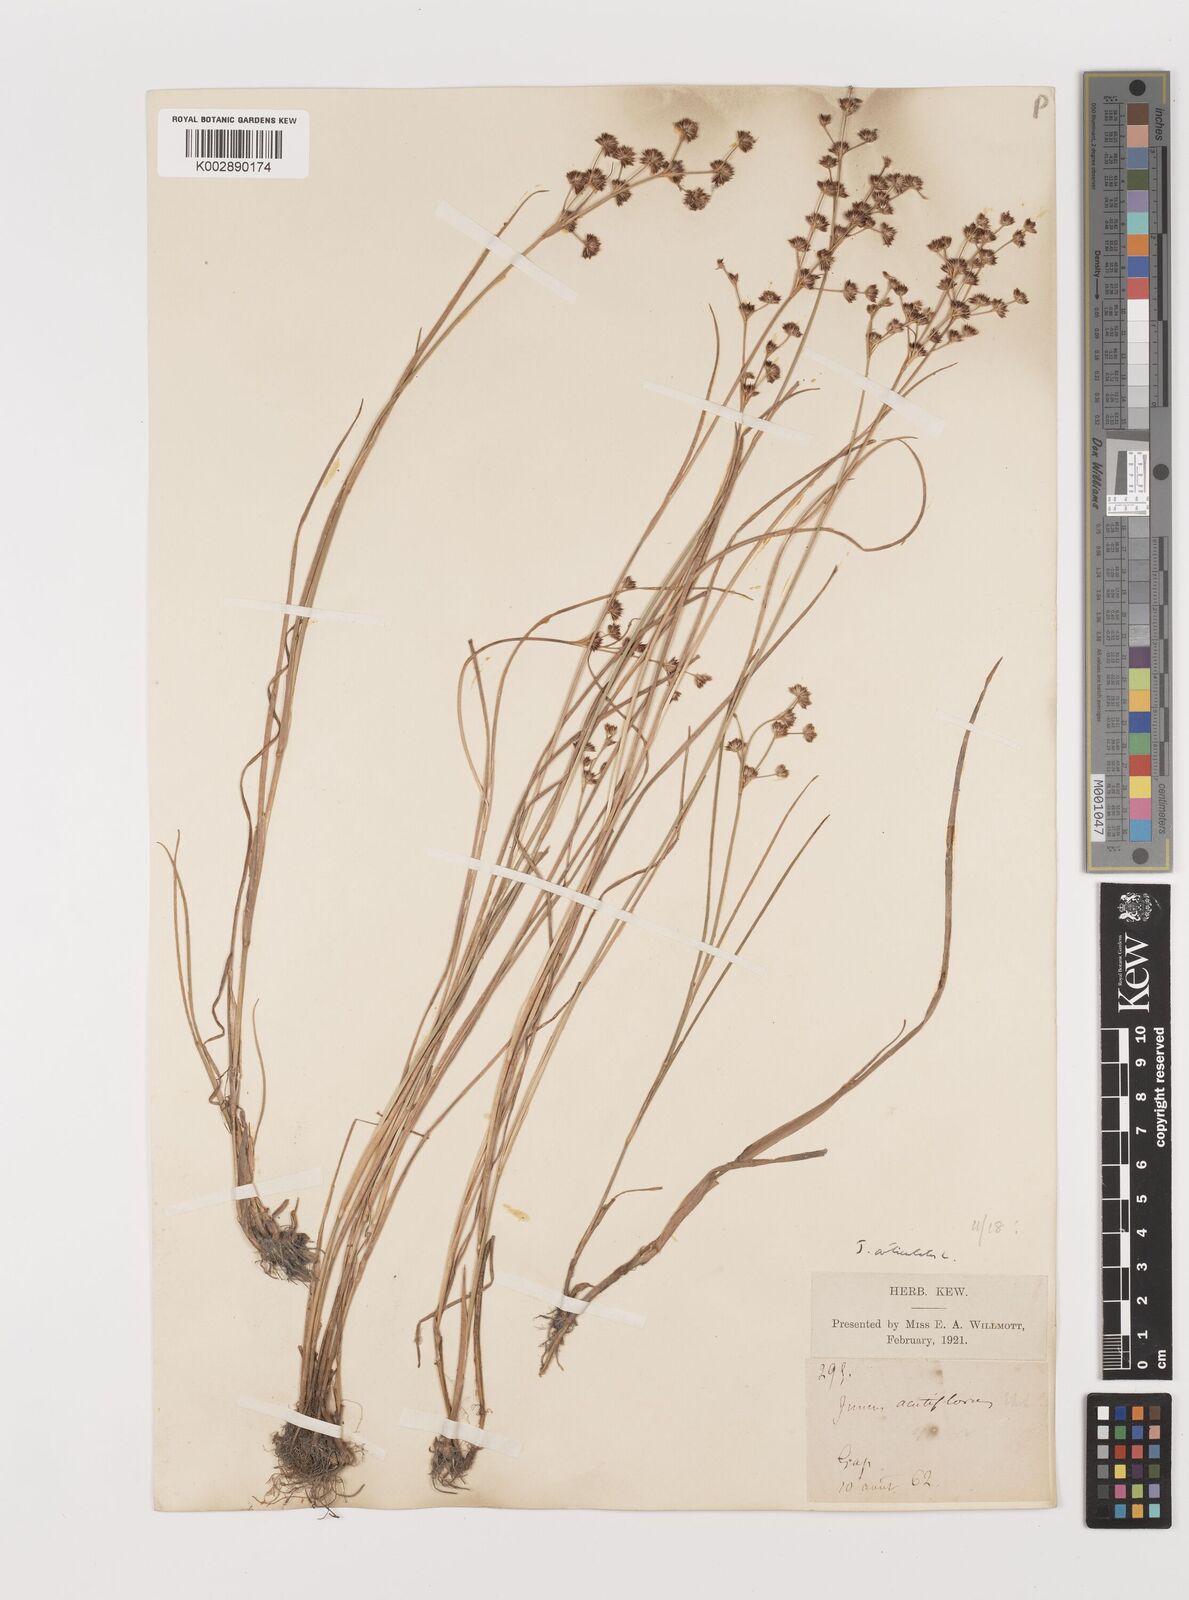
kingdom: Plantae
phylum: Tracheophyta
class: Liliopsida
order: Poales
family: Juncaceae
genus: Juncus
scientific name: Juncus articulatus
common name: Jointed rush
